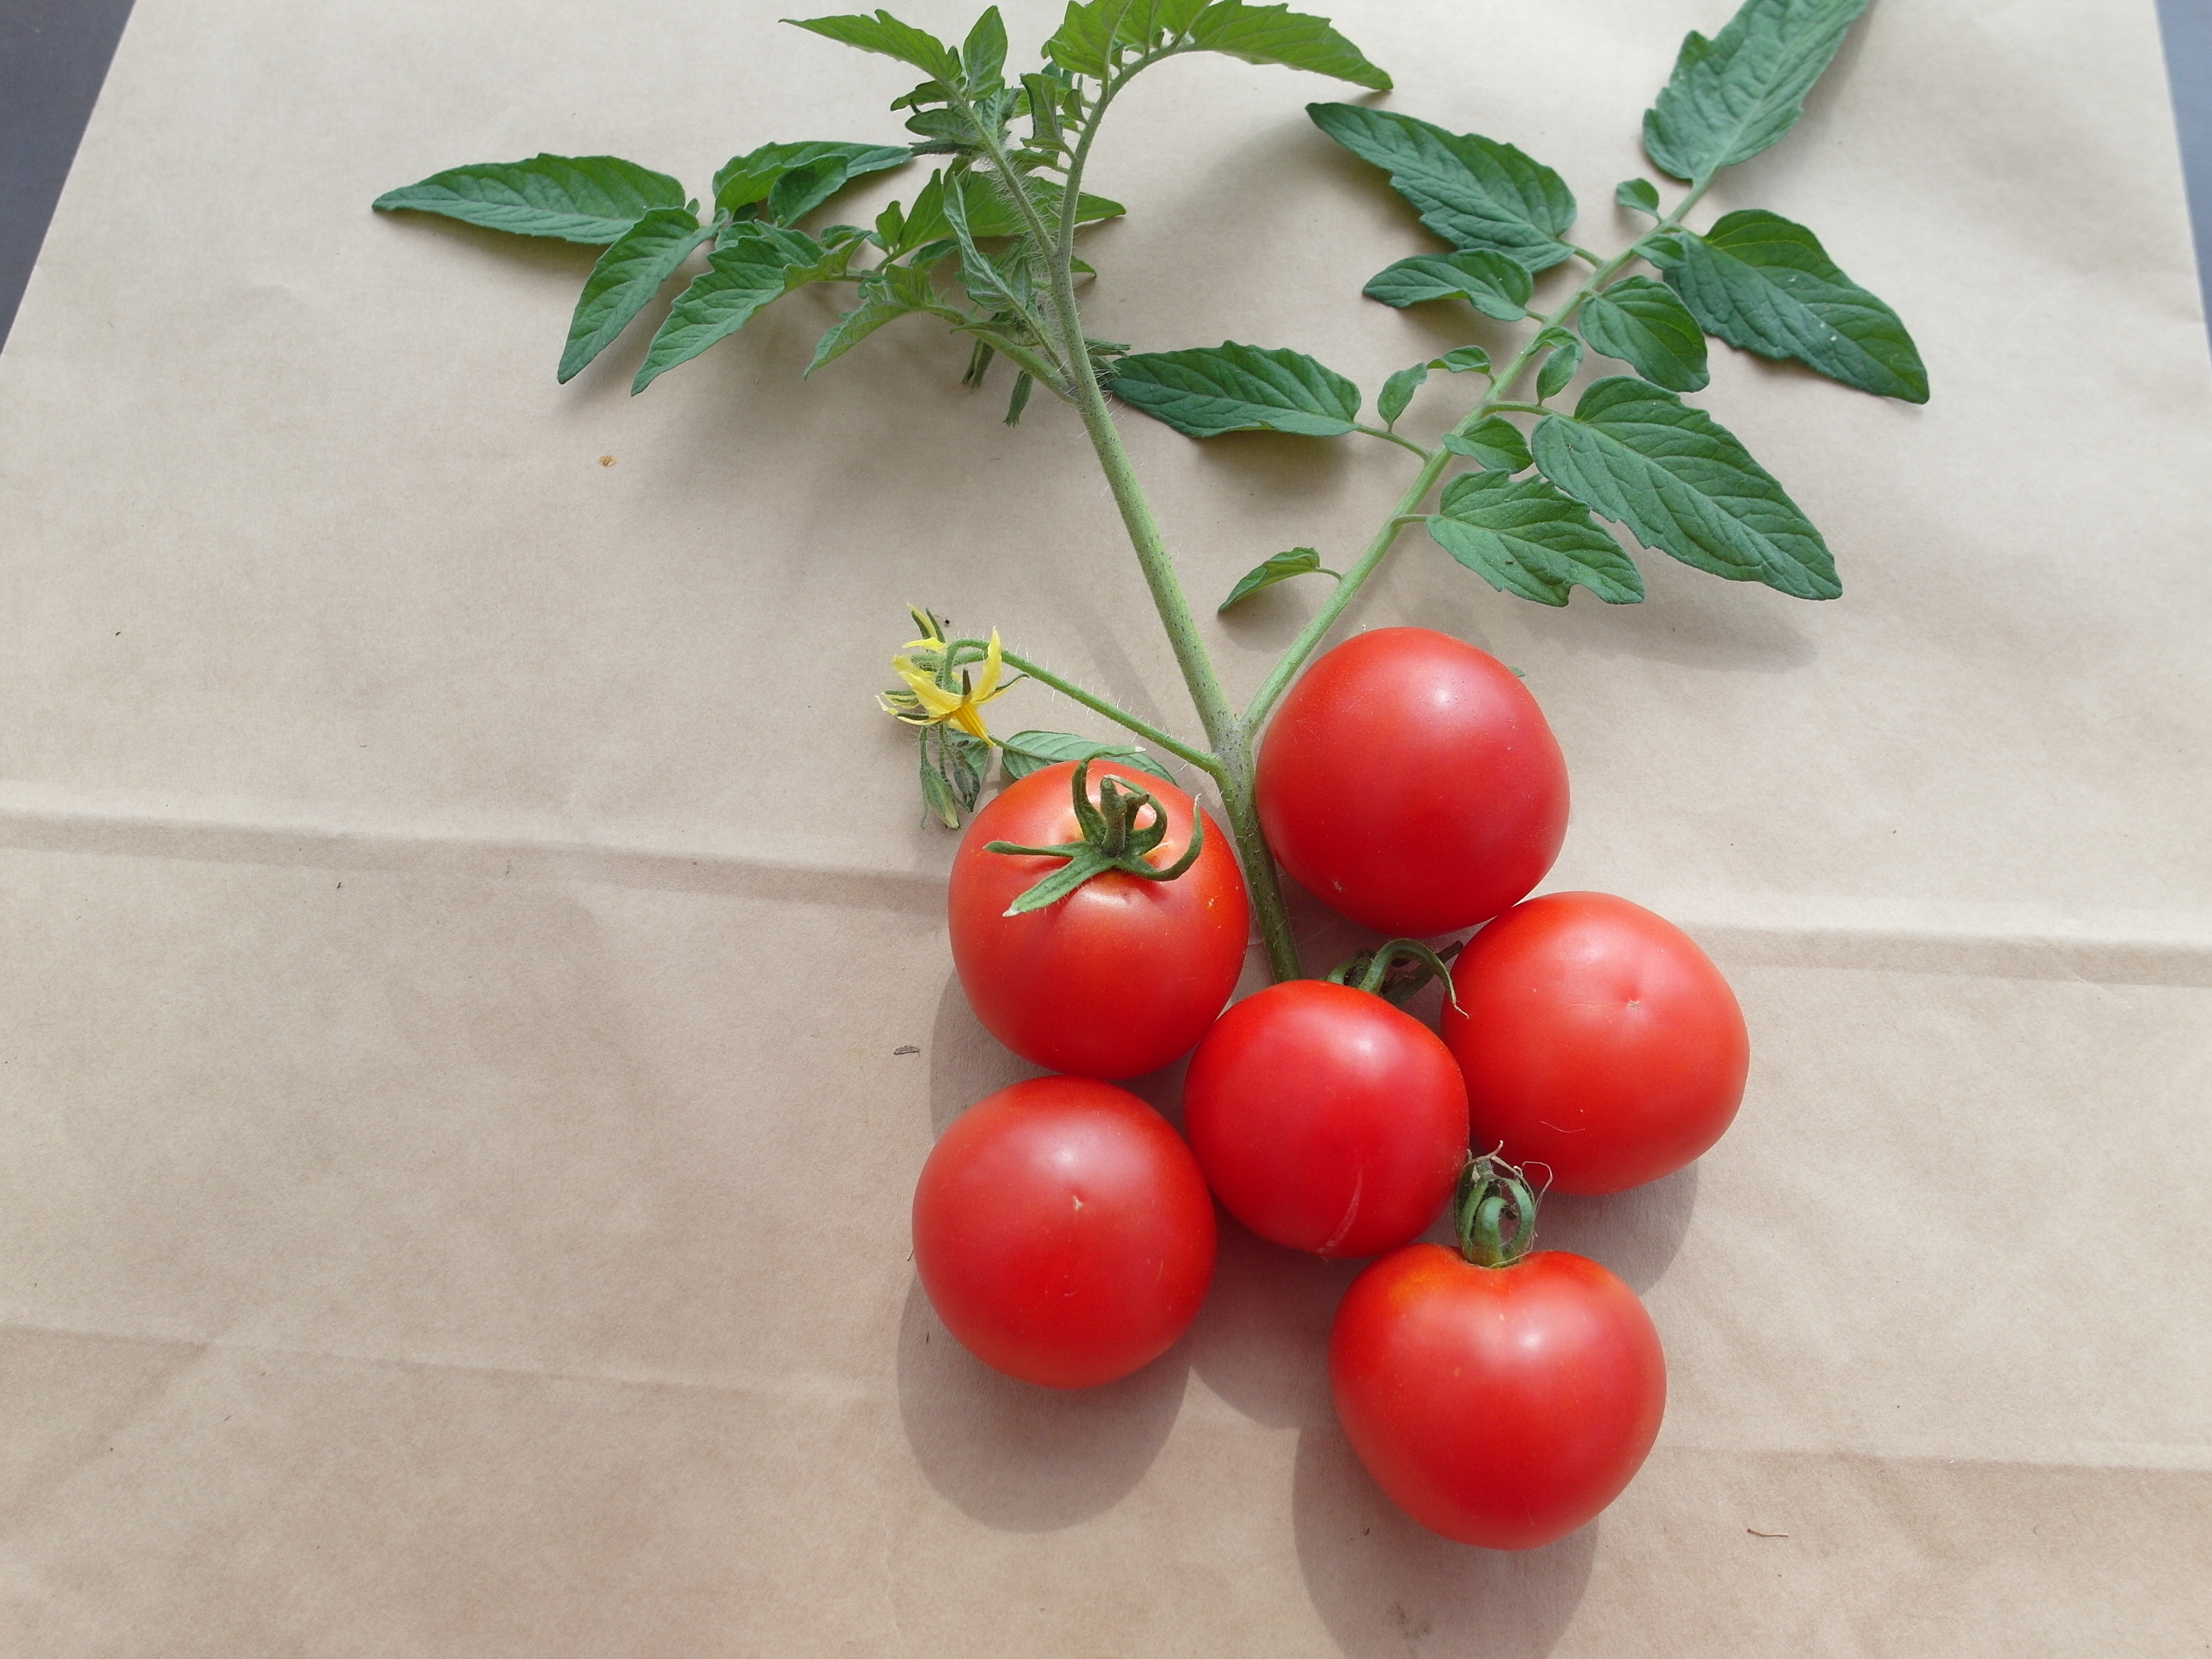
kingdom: Plantae
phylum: Tracheophyta
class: Magnoliopsida
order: Solanales
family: Solanaceae
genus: Solanum
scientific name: Solanum lycopersicum
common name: Garden tomato
